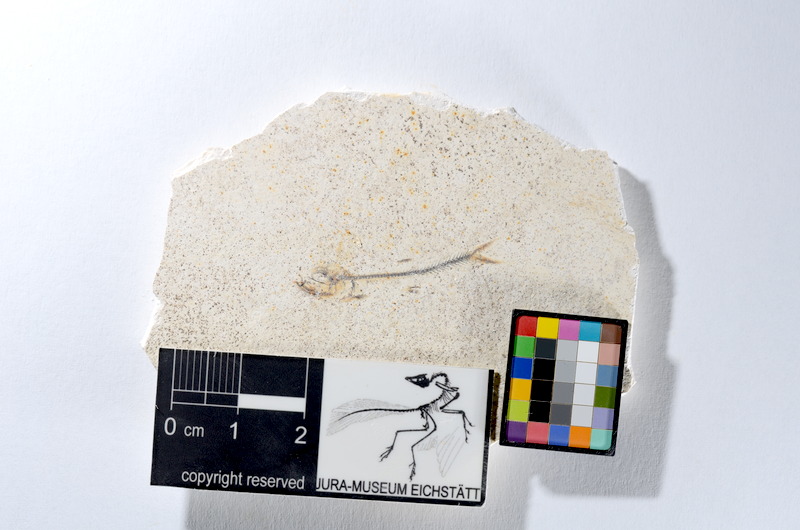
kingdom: Animalia
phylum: Chordata
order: Salmoniformes
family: Orthogonikleithridae
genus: Orthogonikleithrus
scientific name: Orthogonikleithrus hoelli
